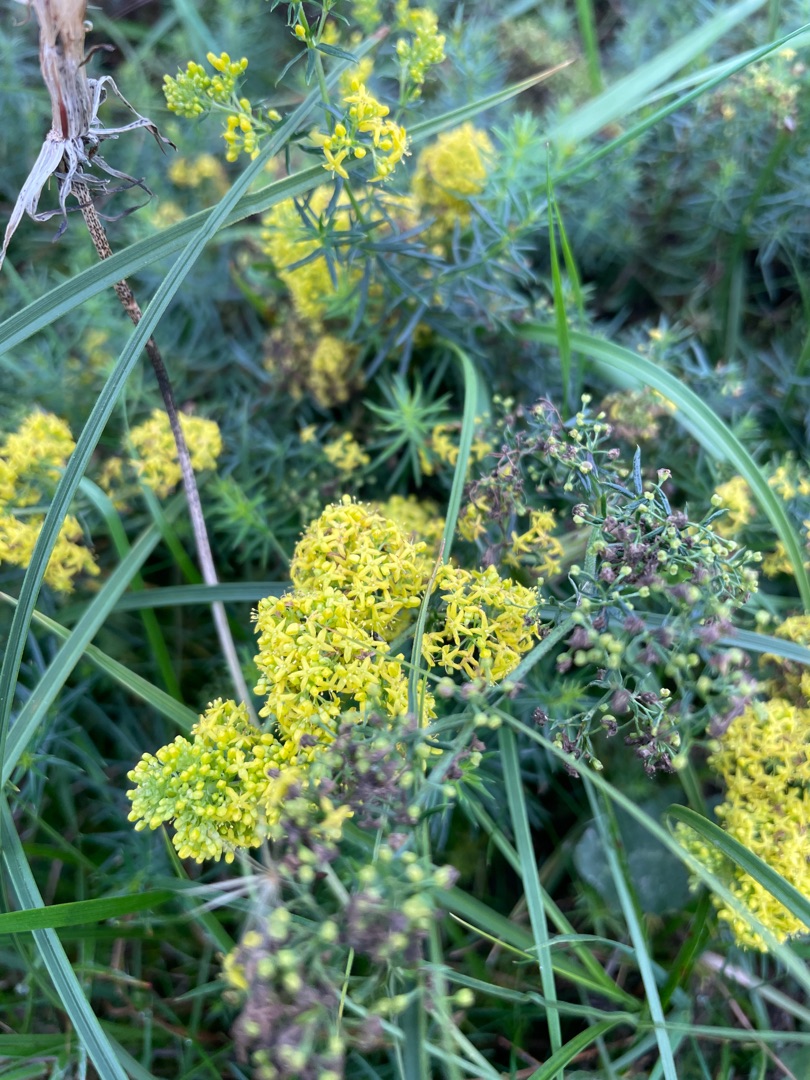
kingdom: Plantae
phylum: Tracheophyta
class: Magnoliopsida
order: Gentianales
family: Rubiaceae
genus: Galium
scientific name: Galium verum
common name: Gul snerre
